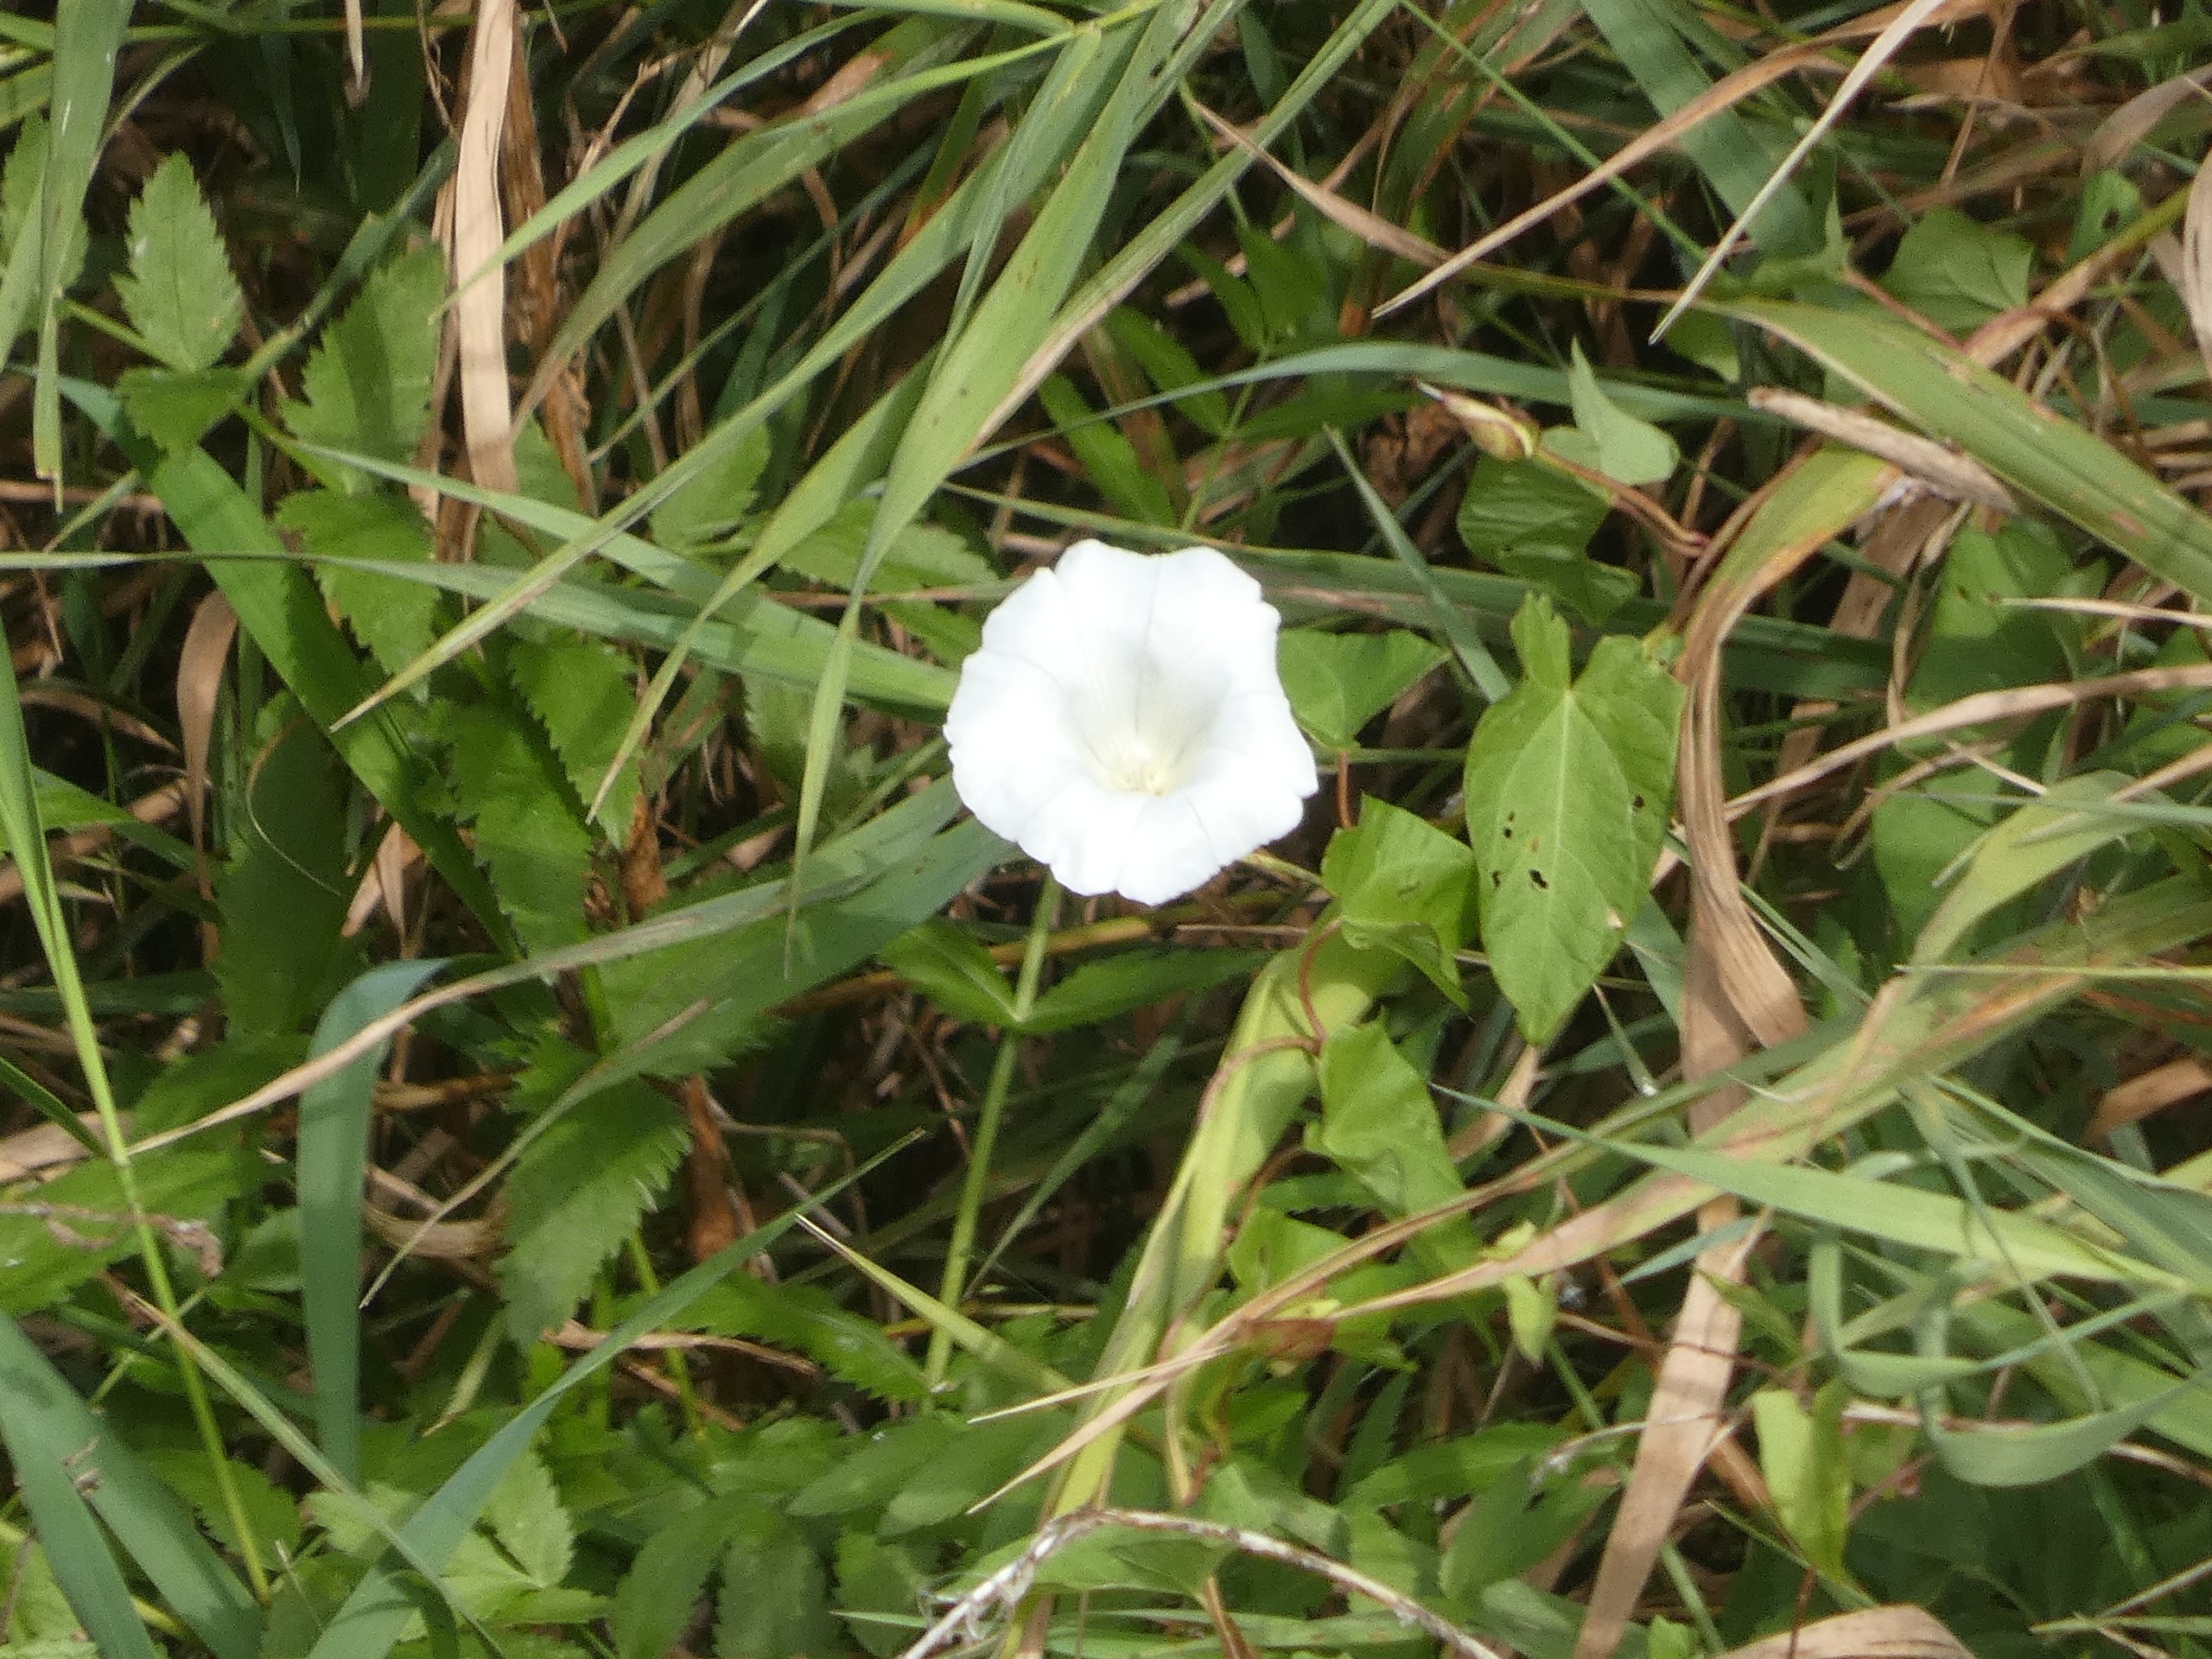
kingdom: Plantae
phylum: Tracheophyta
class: Magnoliopsida
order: Solanales
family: Convolvulaceae
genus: Calystegia
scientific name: Calystegia sepium
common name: Gærde-snerle
